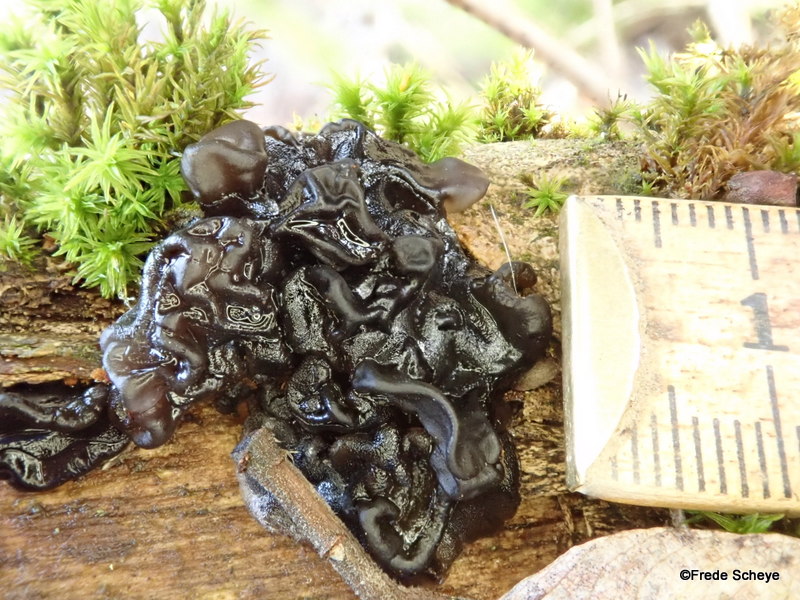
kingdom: Fungi
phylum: Basidiomycota
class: Agaricomycetes
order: Auriculariales
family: Auriculariaceae
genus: Exidia
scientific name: Exidia nigricans
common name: almindelig bævretop
